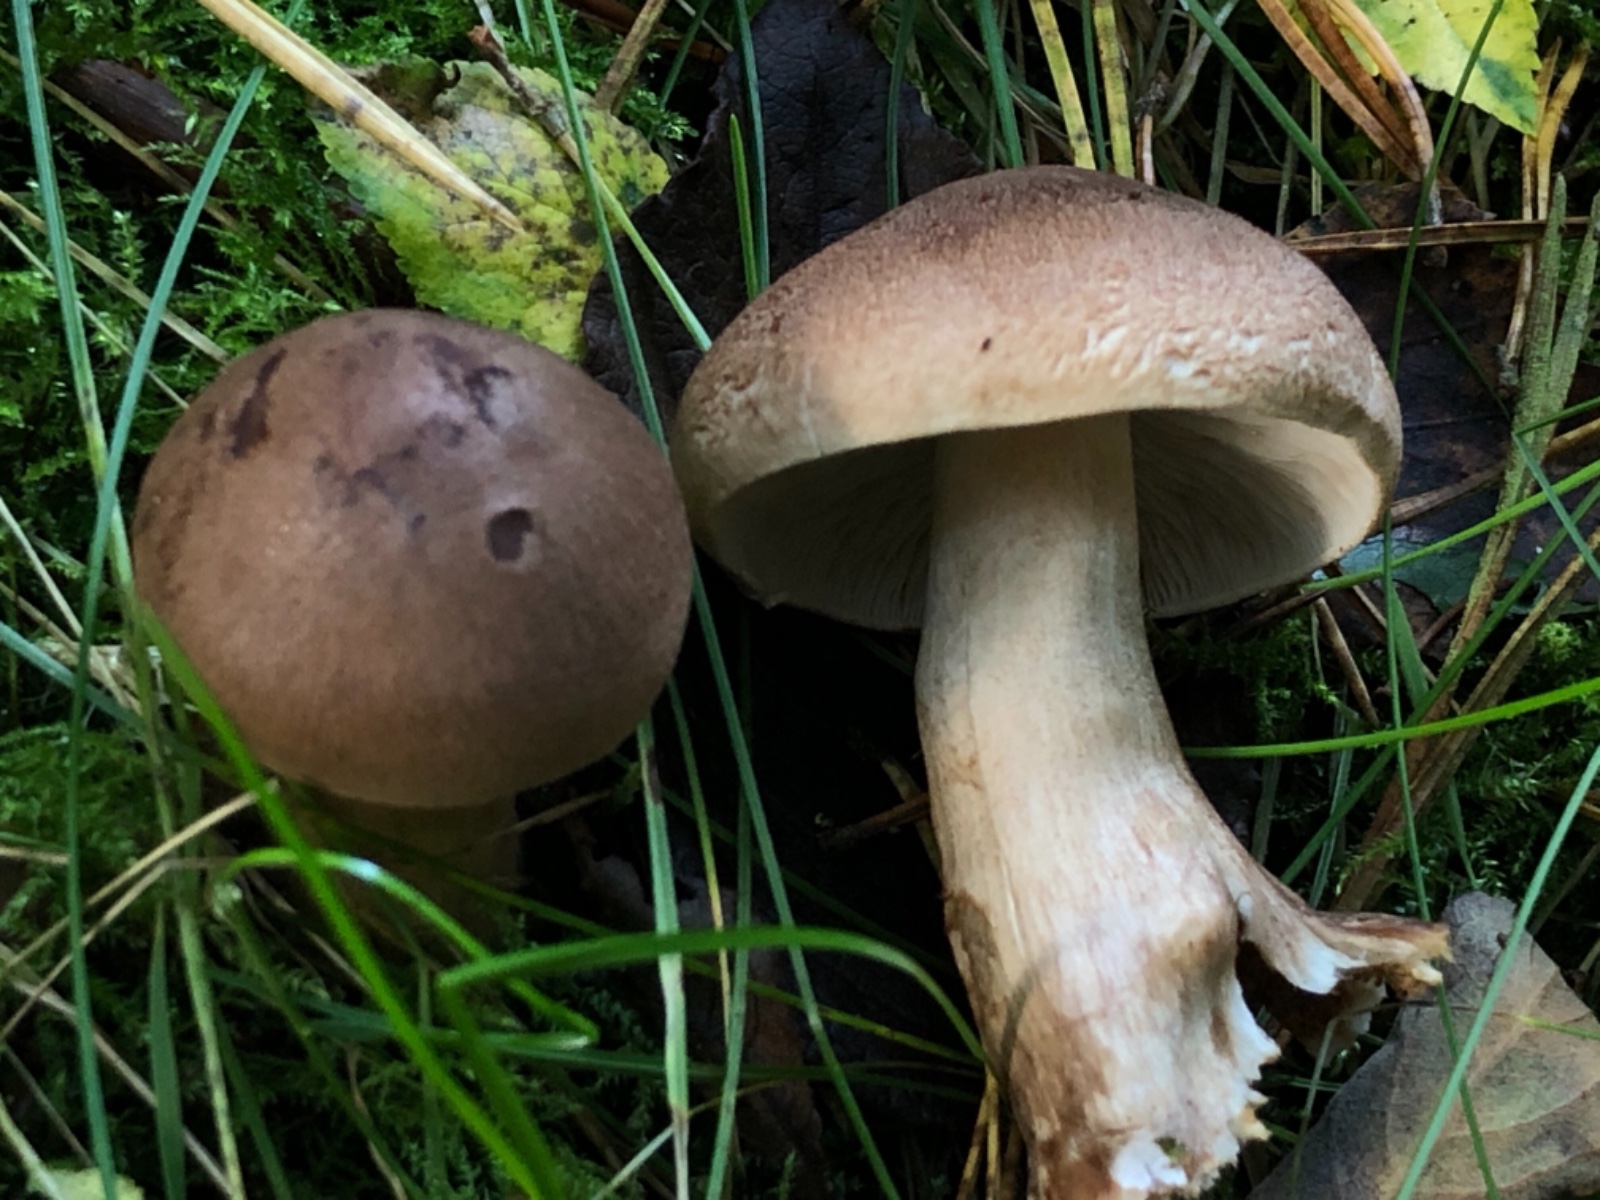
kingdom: Fungi
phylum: Basidiomycota
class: Agaricomycetes
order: Agaricales
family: Tricholomataceae
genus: Tricholoma
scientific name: Tricholoma imbricatum
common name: skællet ridderhat
